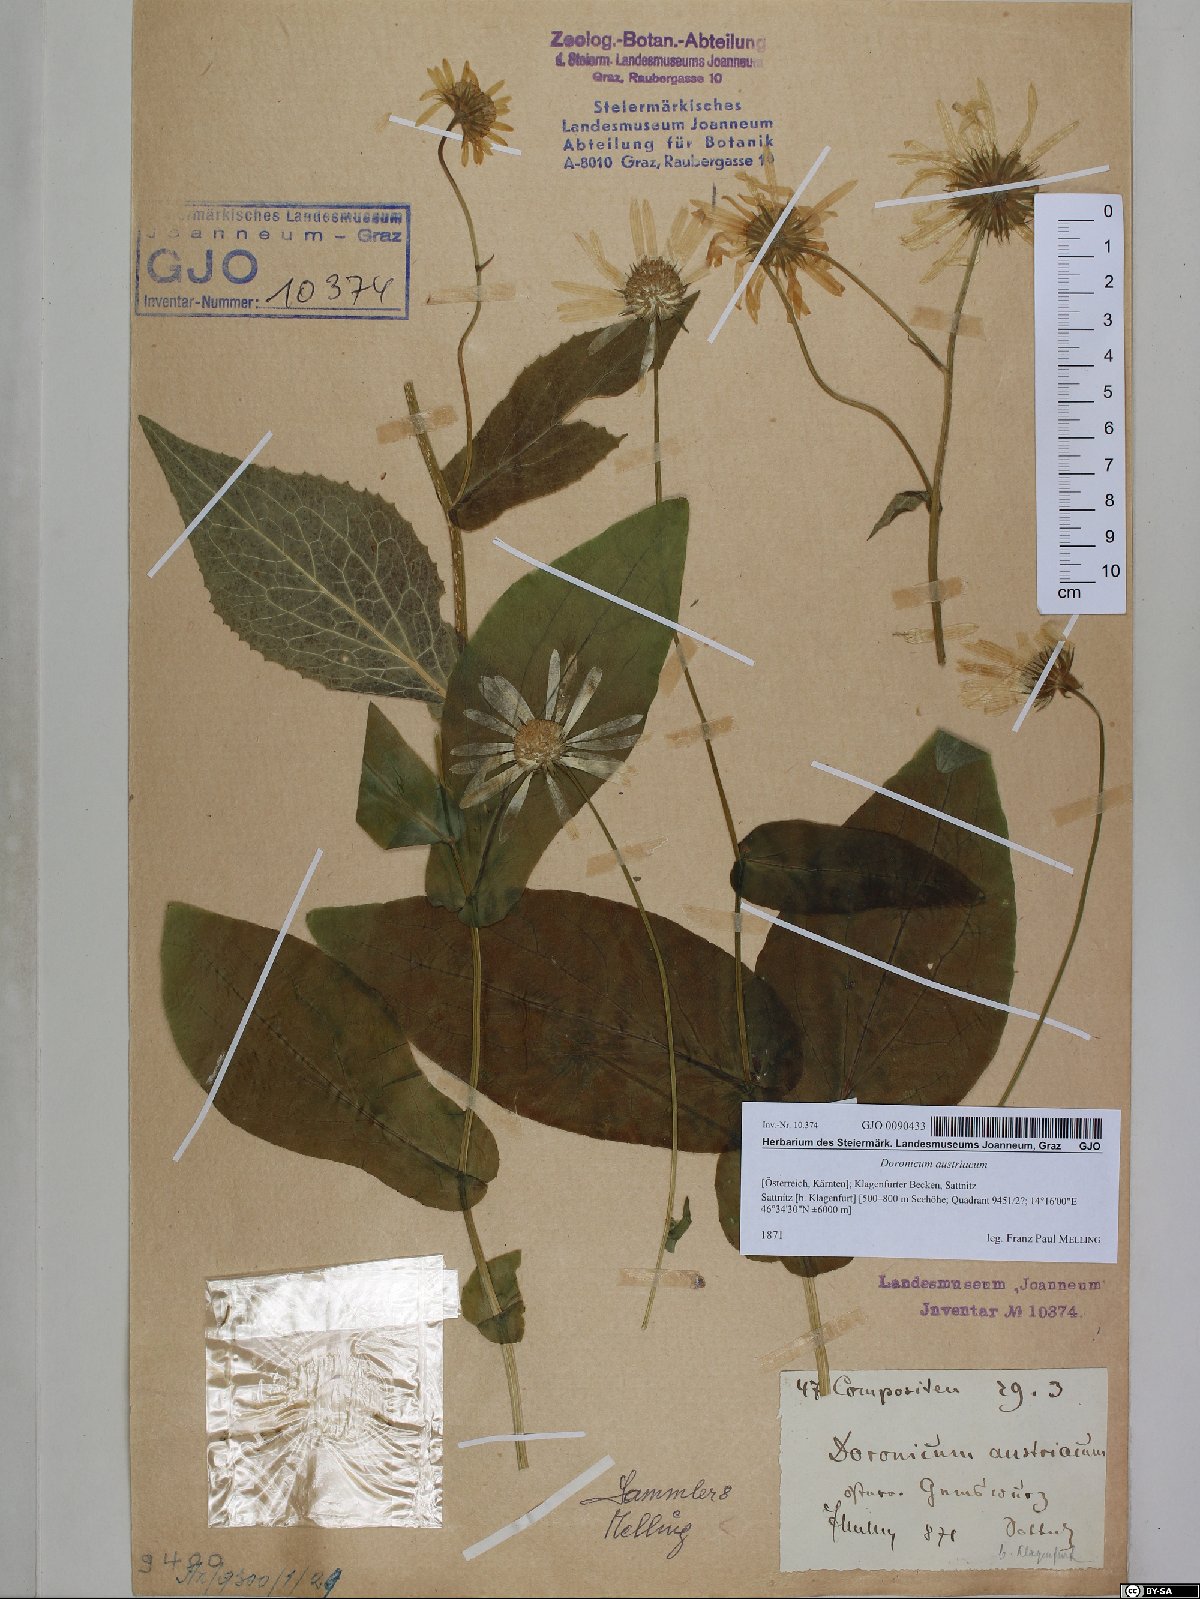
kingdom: Plantae
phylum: Tracheophyta
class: Magnoliopsida
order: Asterales
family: Asteraceae
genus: Doronicum
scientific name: Doronicum austriacum
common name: Austrian leopard's-bane
